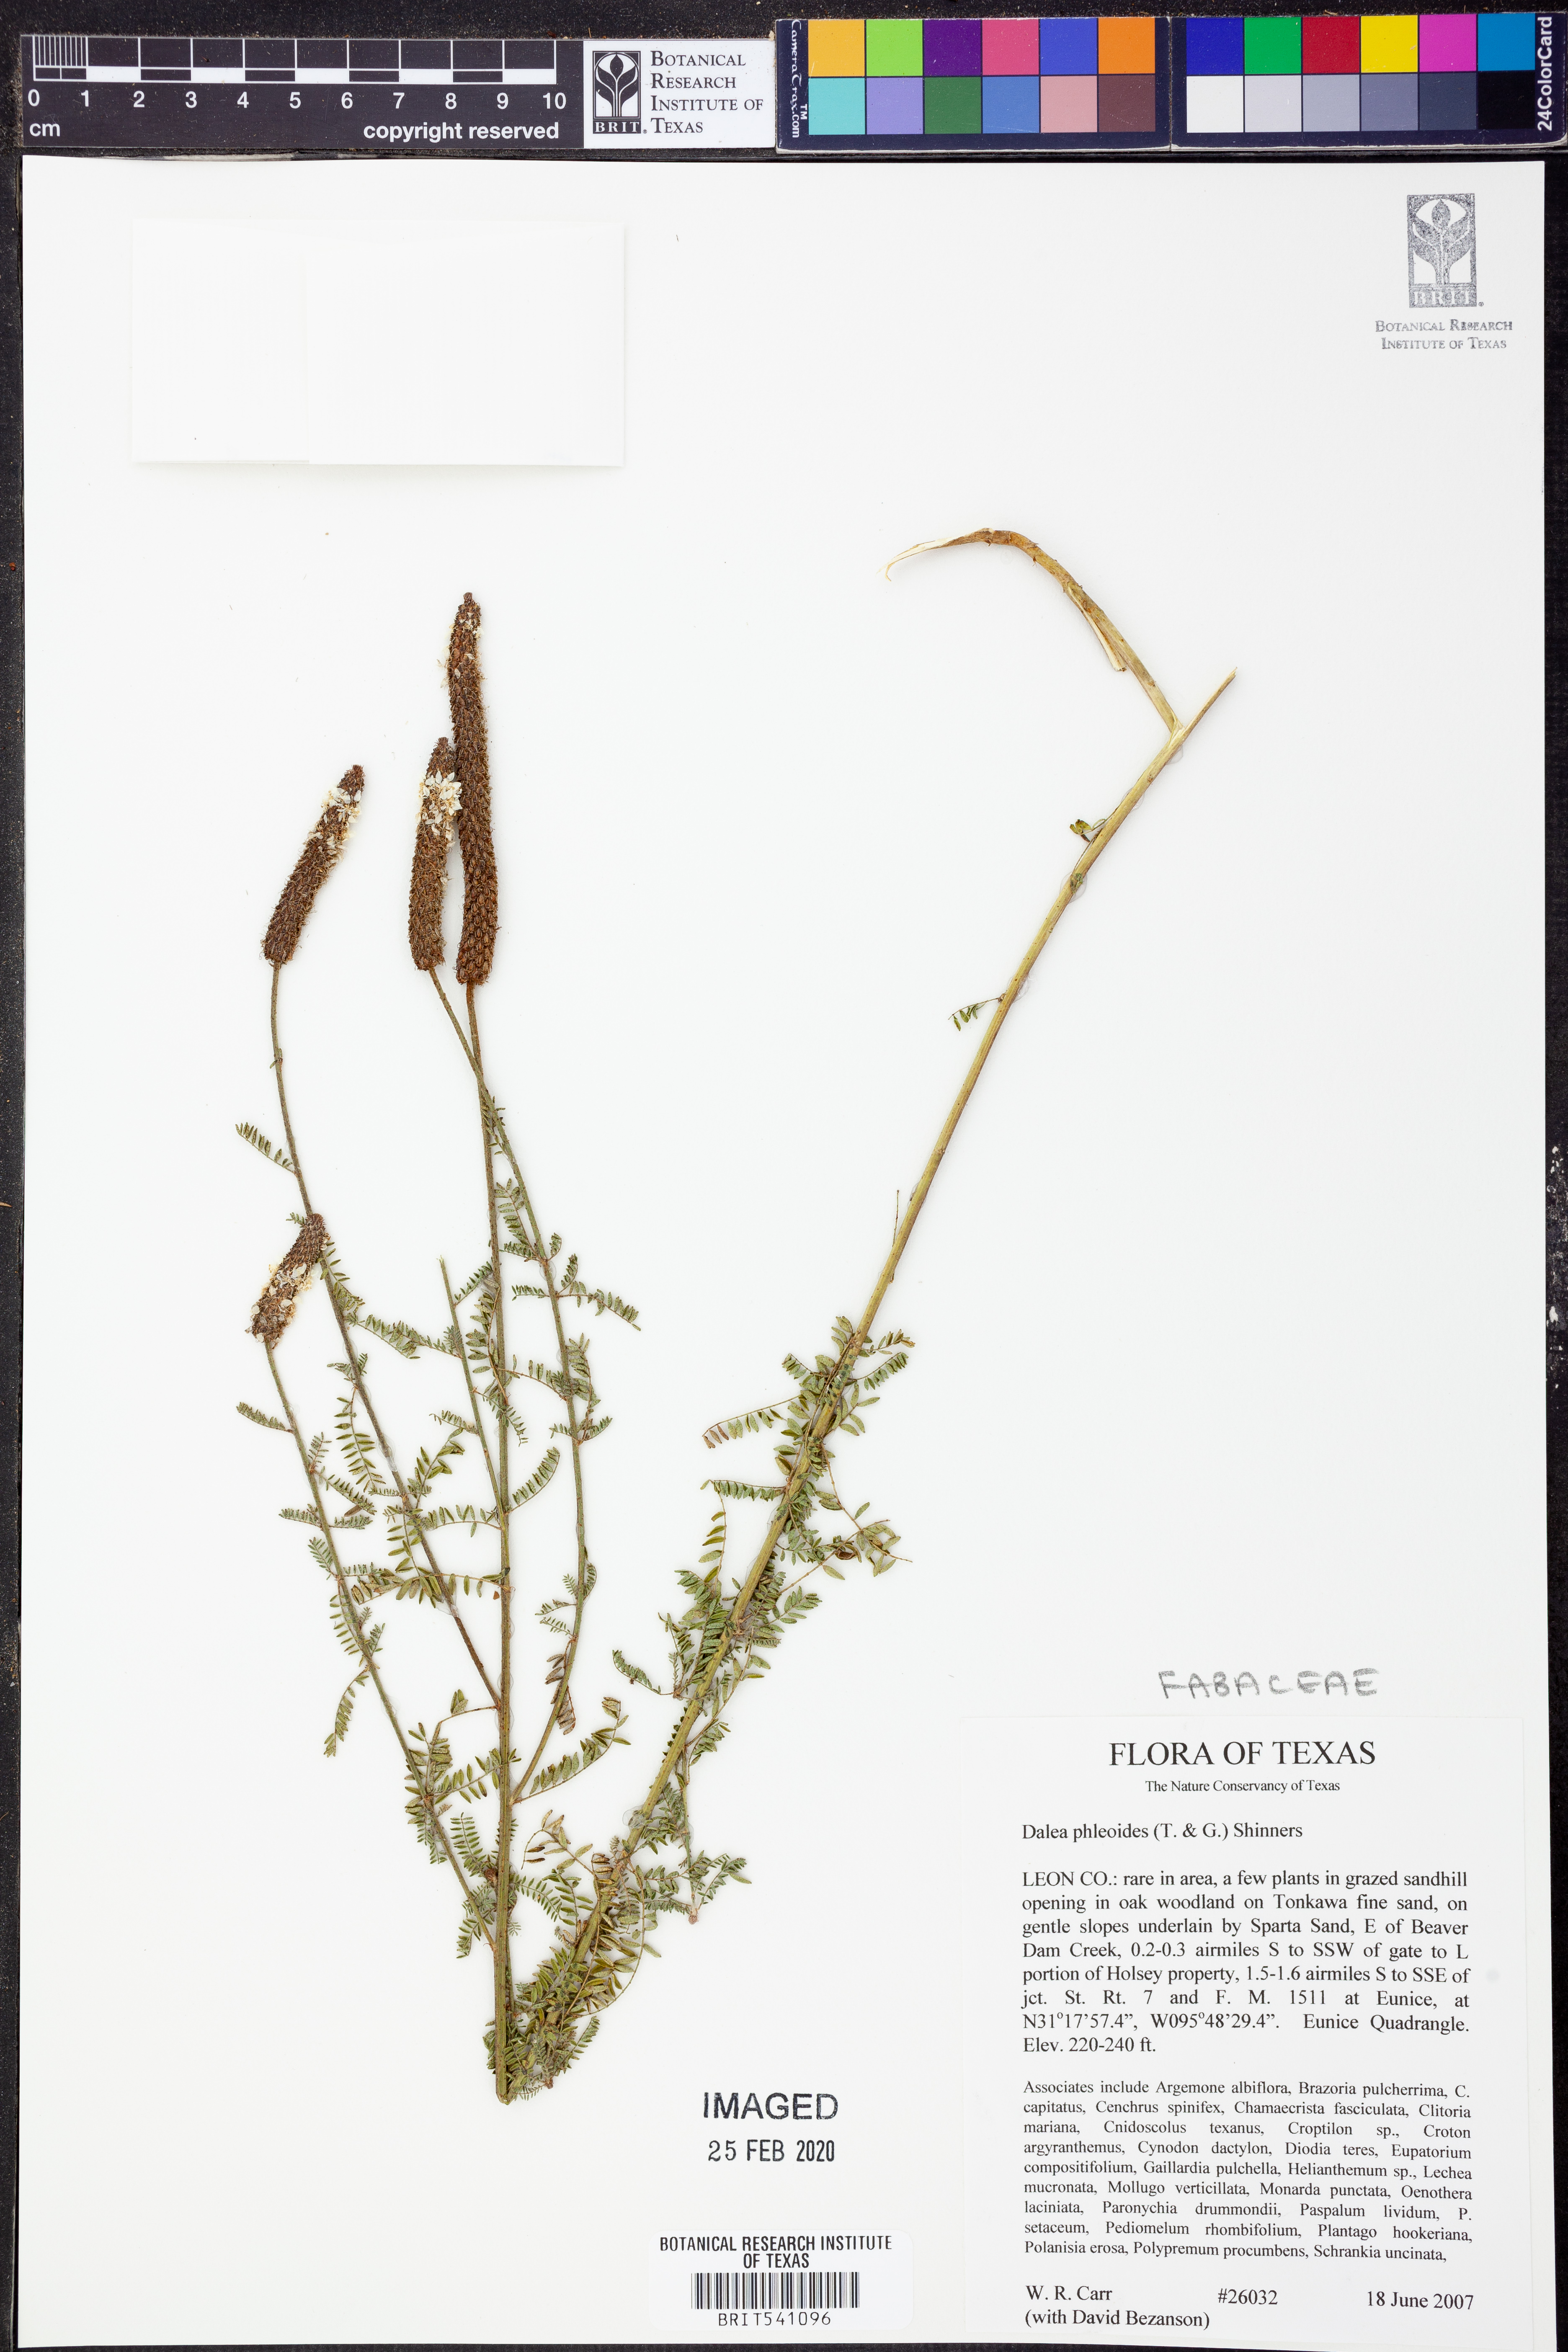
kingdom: Plantae
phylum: Tracheophyta
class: Magnoliopsida
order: Fabales
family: Fabaceae
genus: Dalea
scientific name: Dalea phleoides
